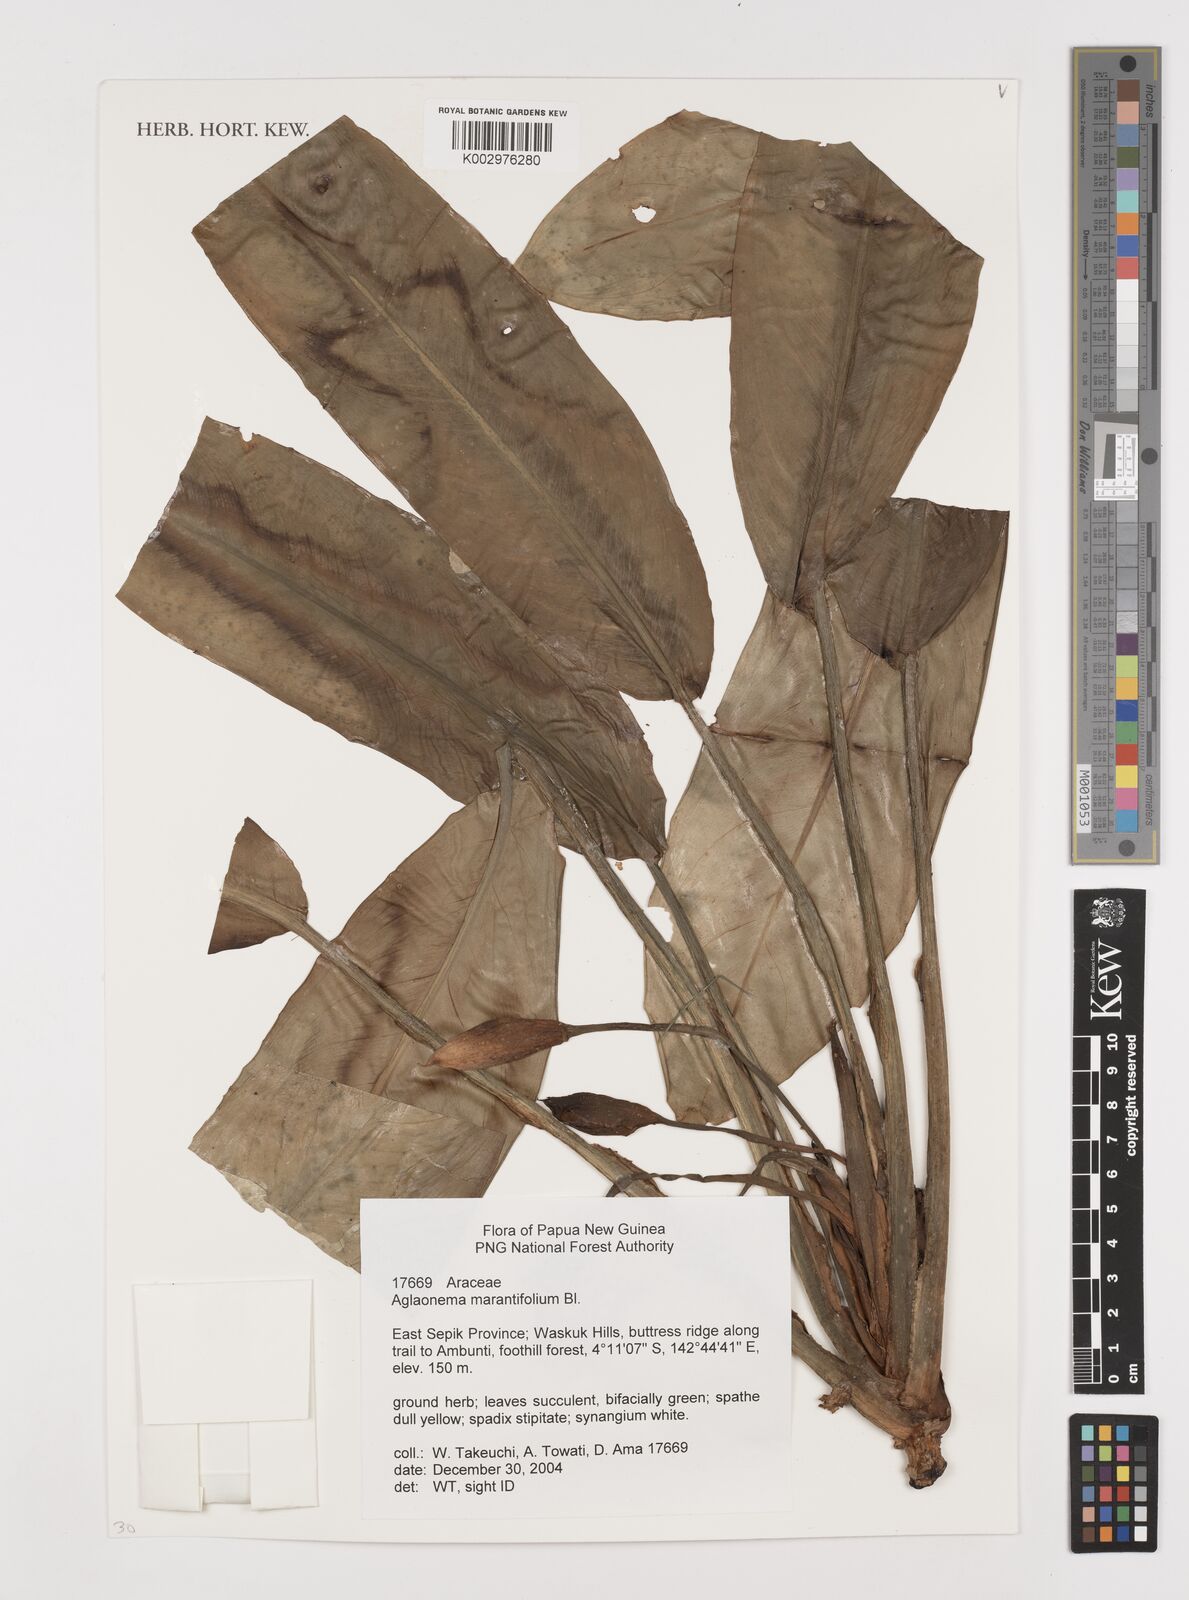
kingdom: Plantae
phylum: Tracheophyta
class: Liliopsida
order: Alismatales
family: Araceae
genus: Aglaonema
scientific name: Aglaonema marantifolium
